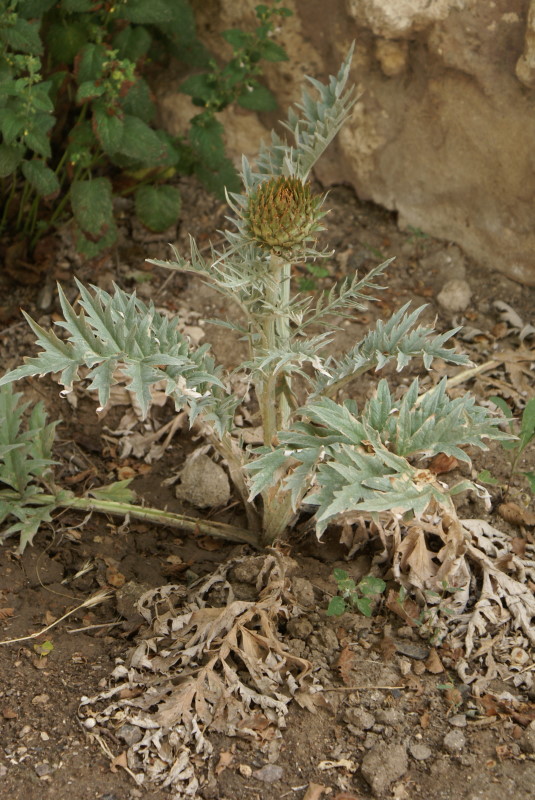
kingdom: Plantae
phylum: Tracheophyta
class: Magnoliopsida
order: Asterales
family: Asteraceae
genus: Cynara
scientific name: Cynara
